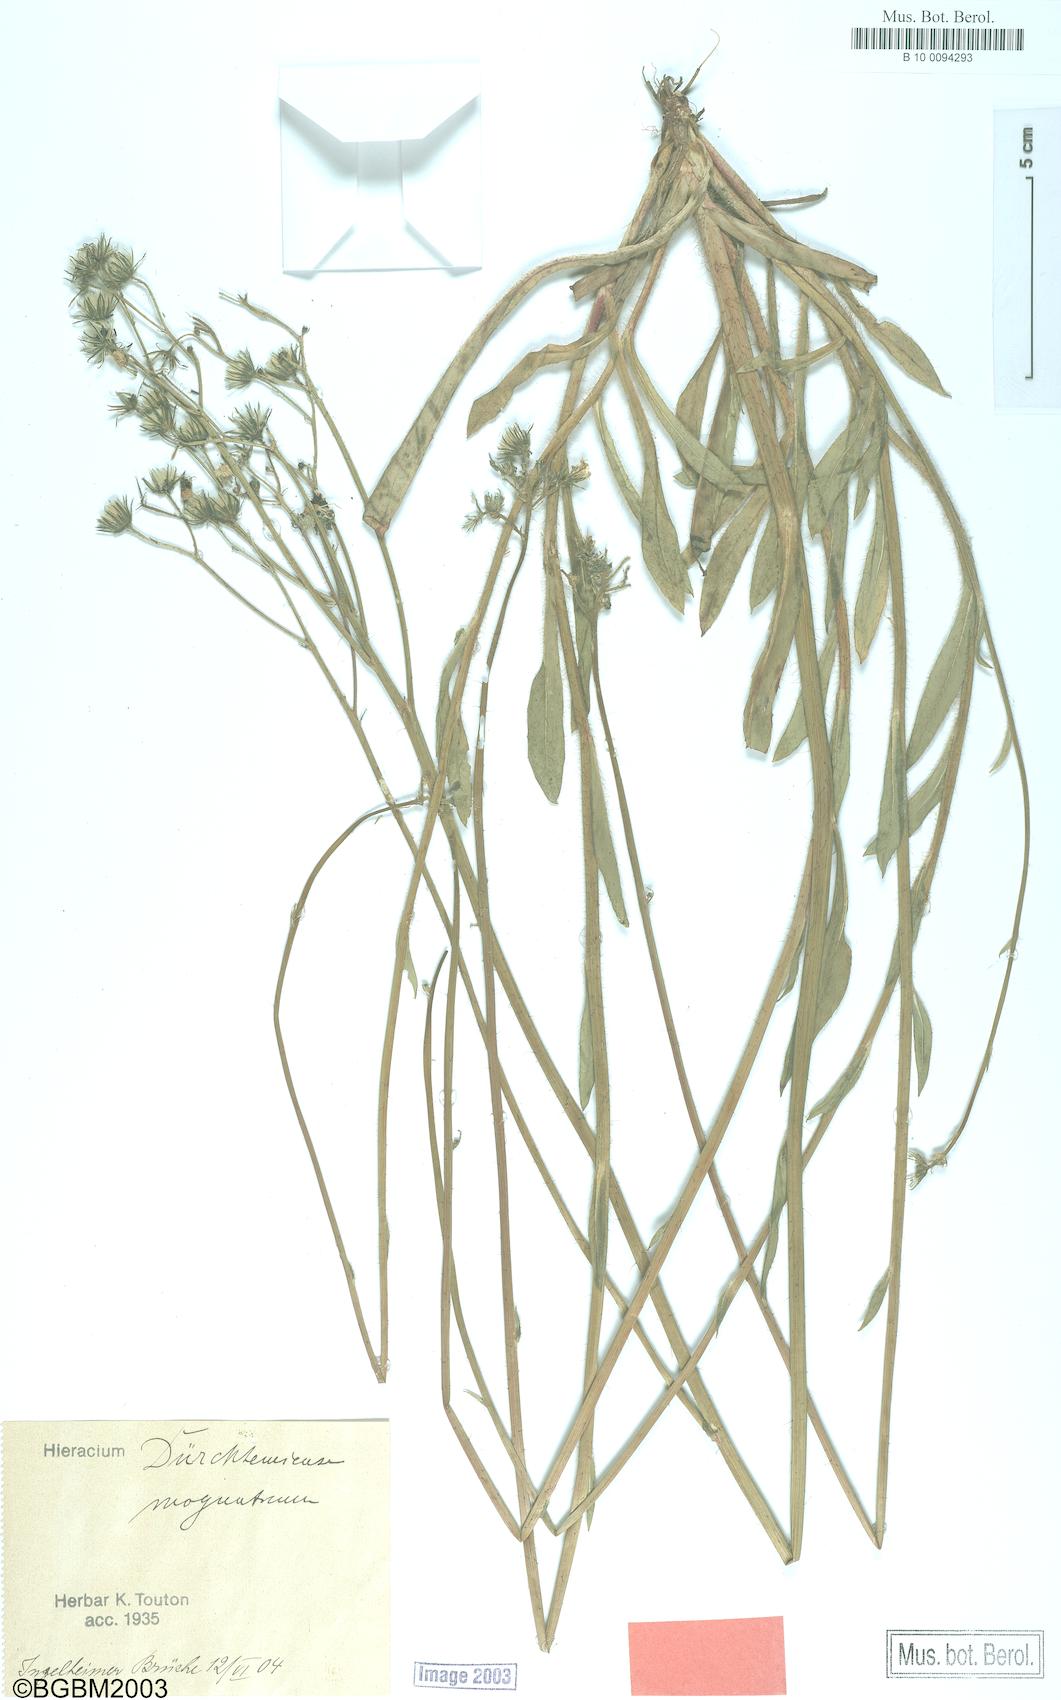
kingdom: Plantae
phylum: Tracheophyta
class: Magnoliopsida
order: Asterales
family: Asteraceae
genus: Pilosella
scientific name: Pilosella duerkhemiensis
